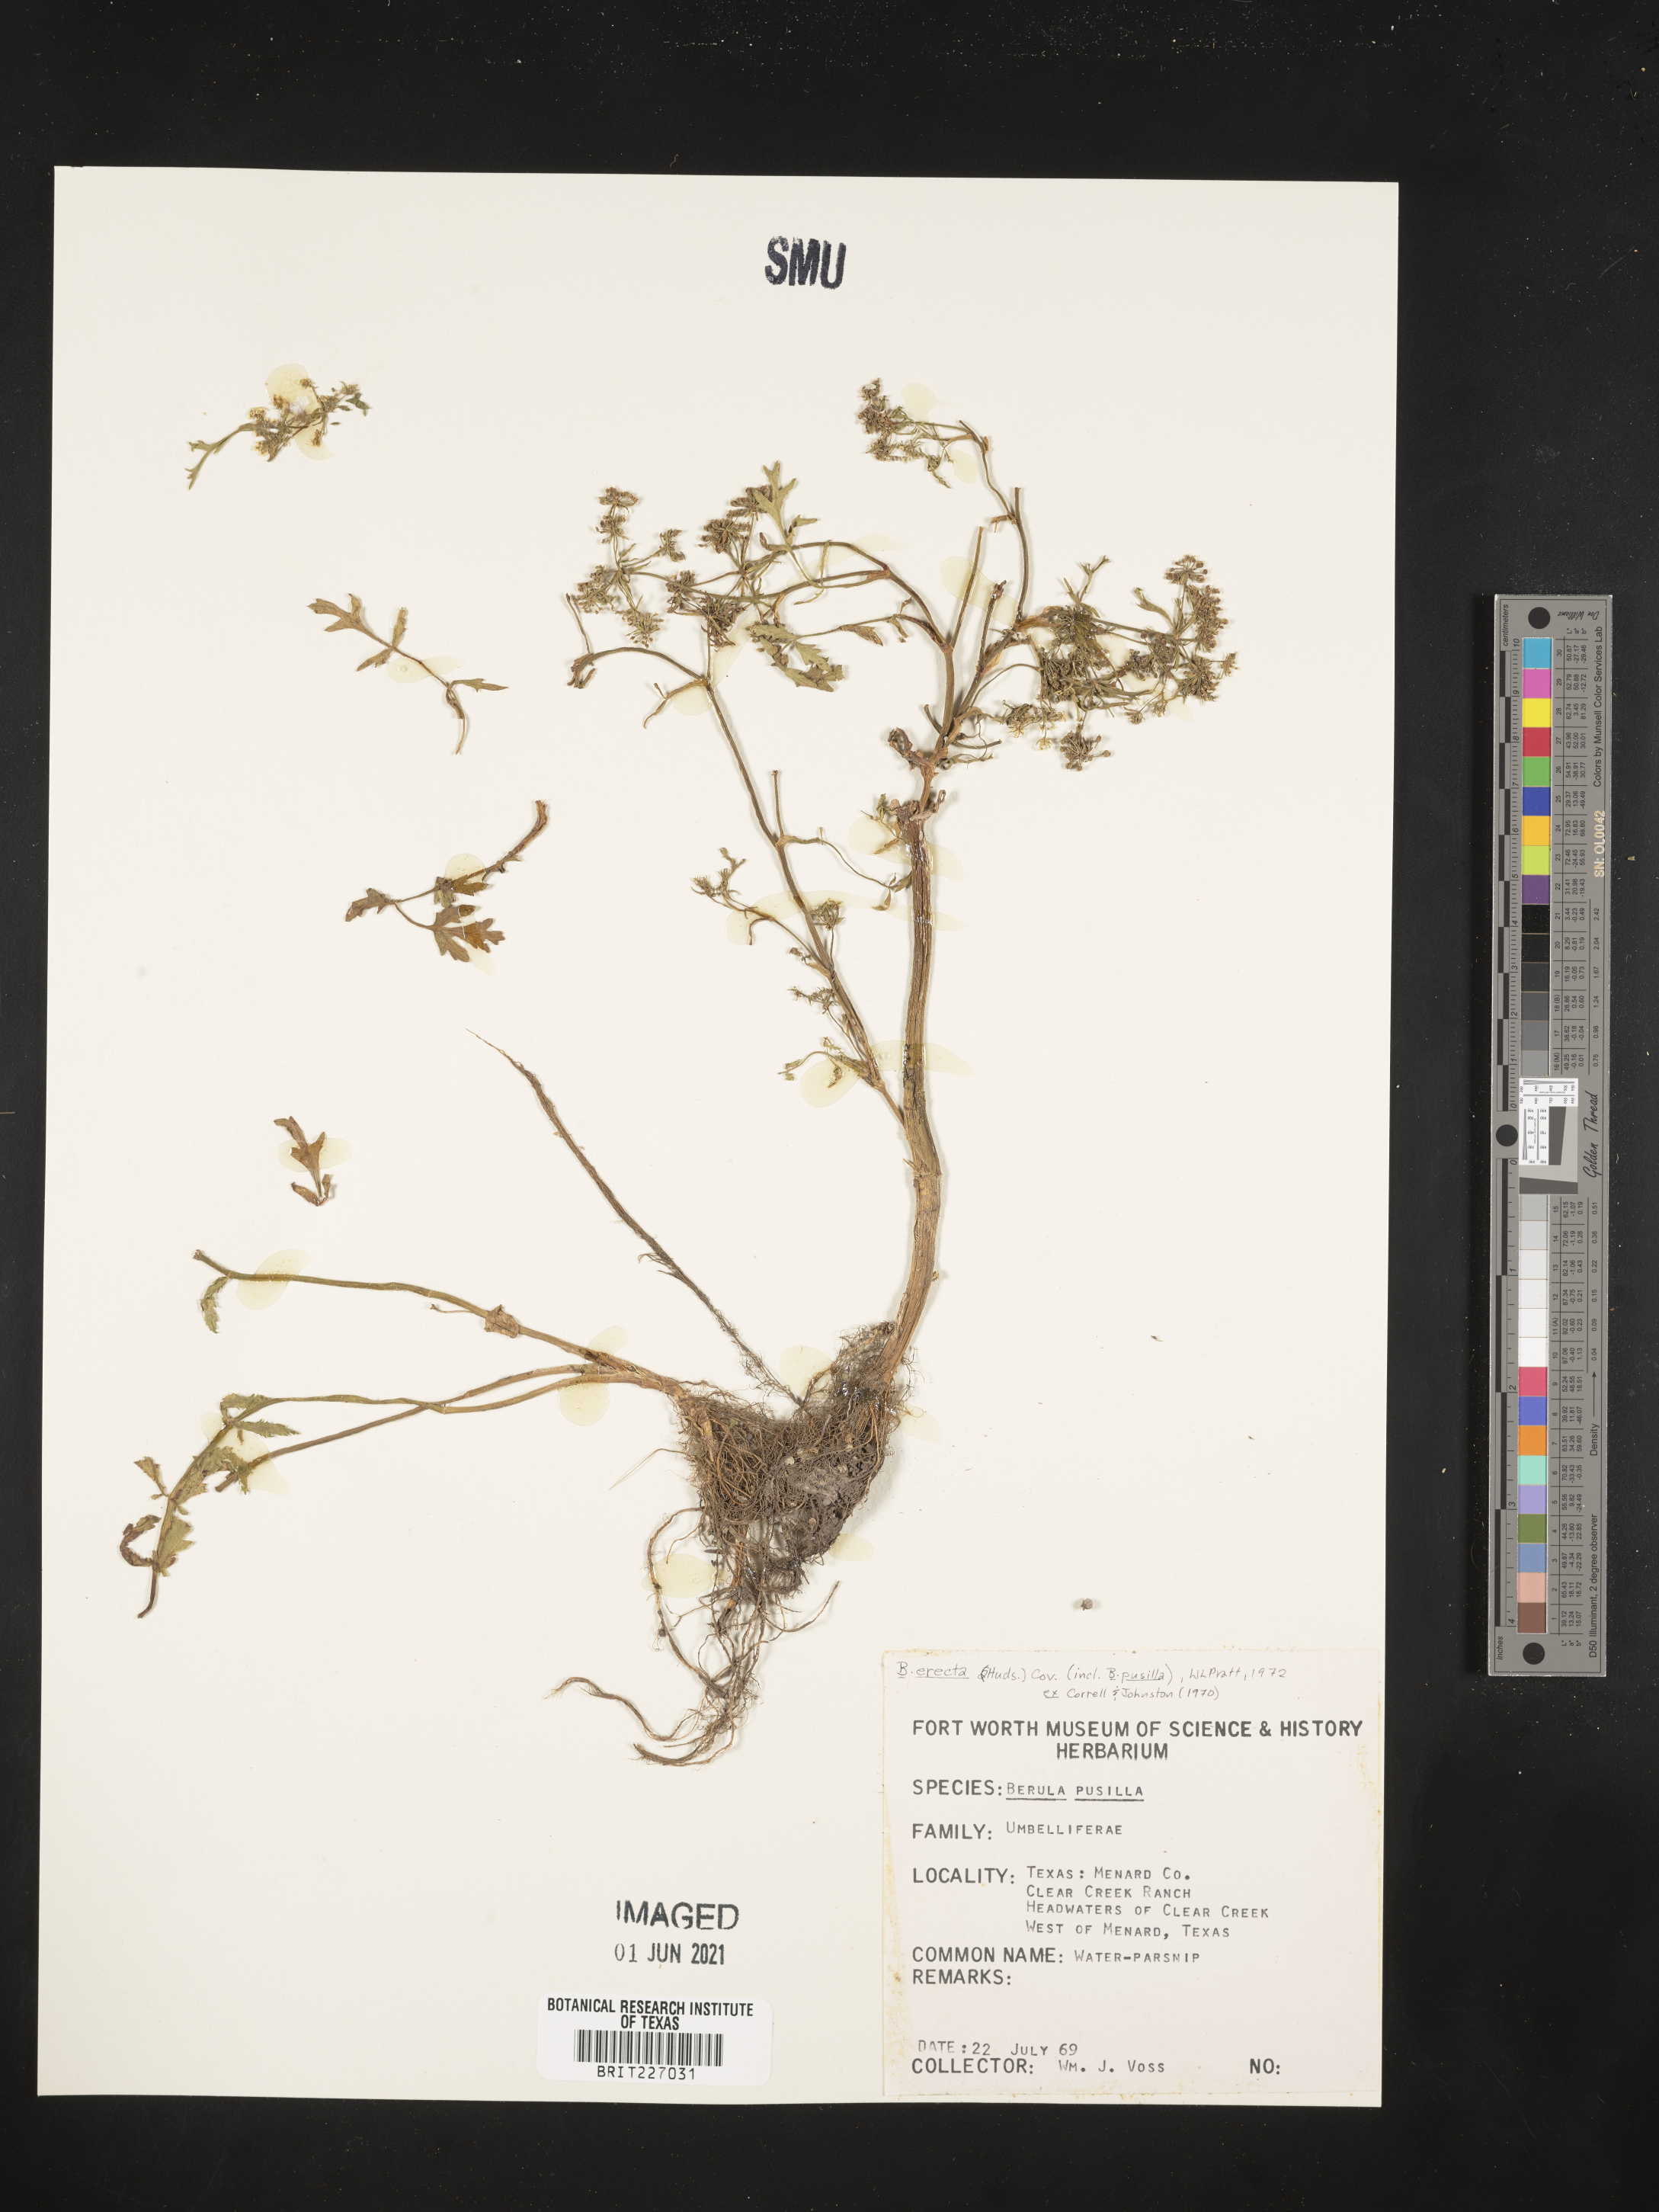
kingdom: Plantae
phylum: Tracheophyta
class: Magnoliopsida
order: Apiales
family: Apiaceae
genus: Berula
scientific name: Berula erecta
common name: Lesser water-parsnip
